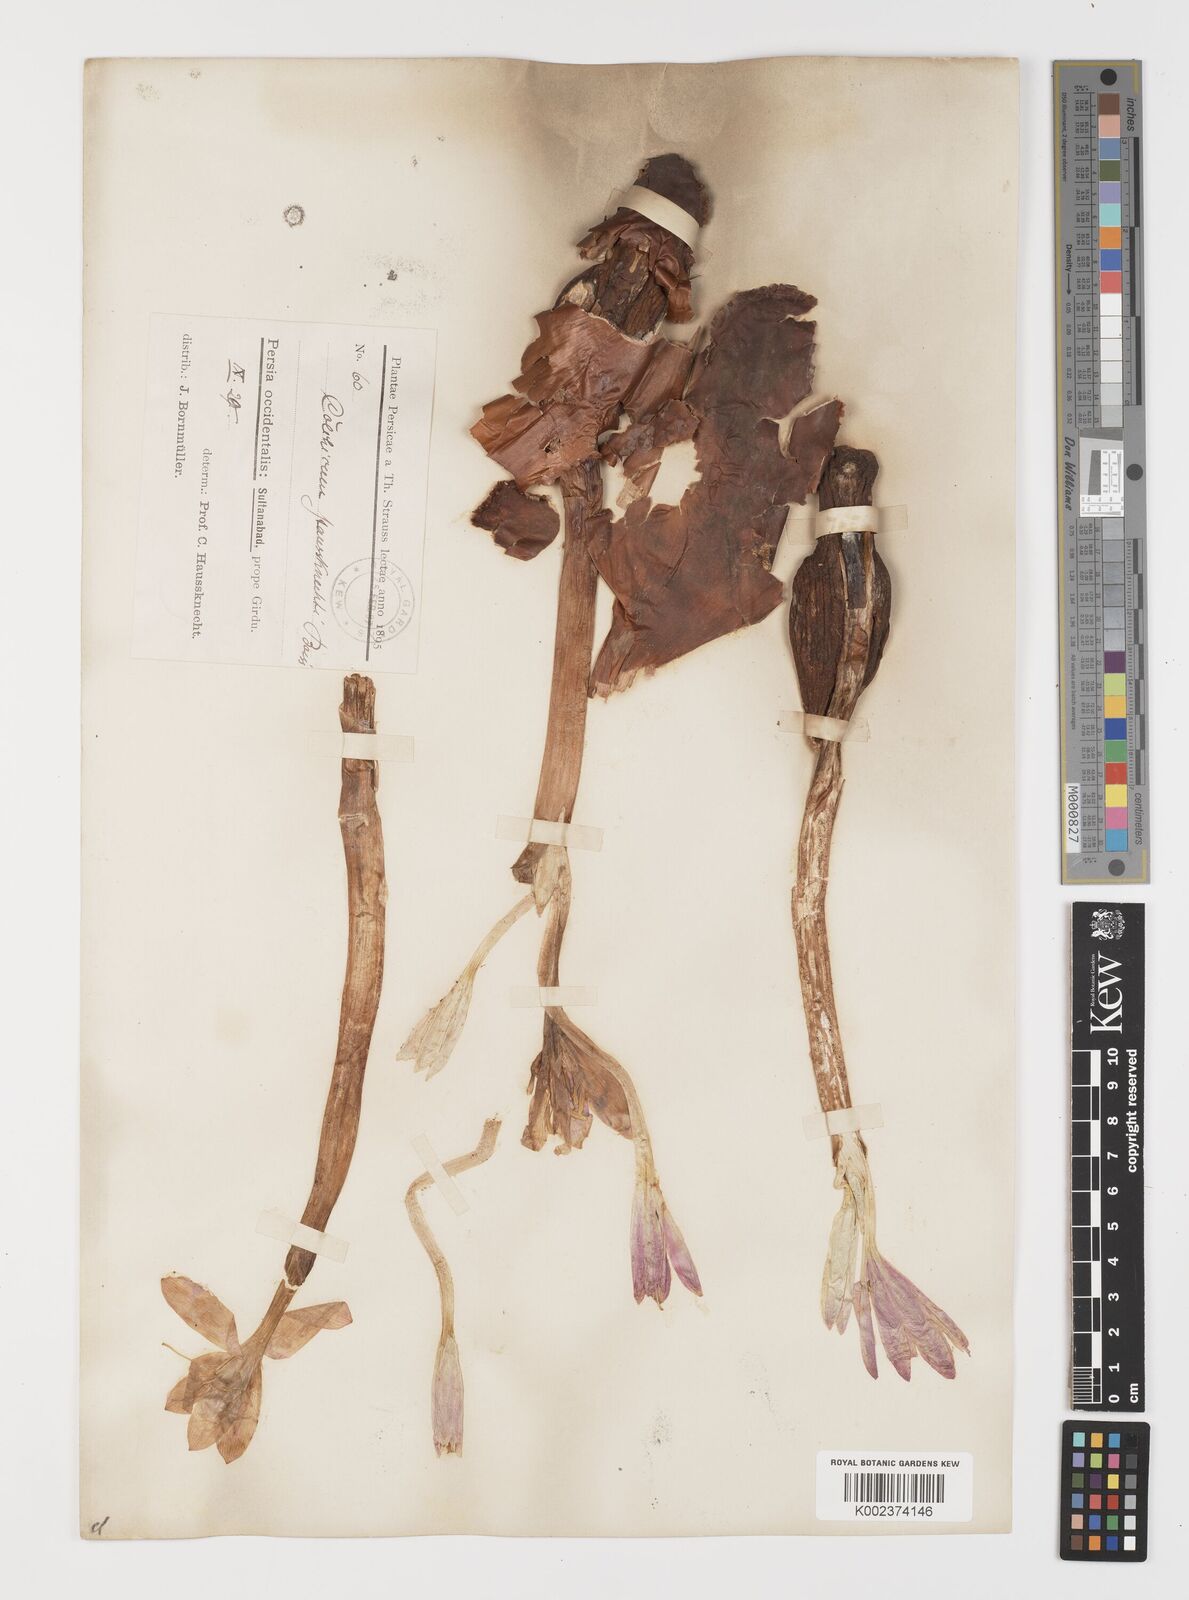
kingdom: Plantae
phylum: Tracheophyta
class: Liliopsida
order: Liliales
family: Colchicaceae
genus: Colchicum
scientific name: Colchicum persicum
